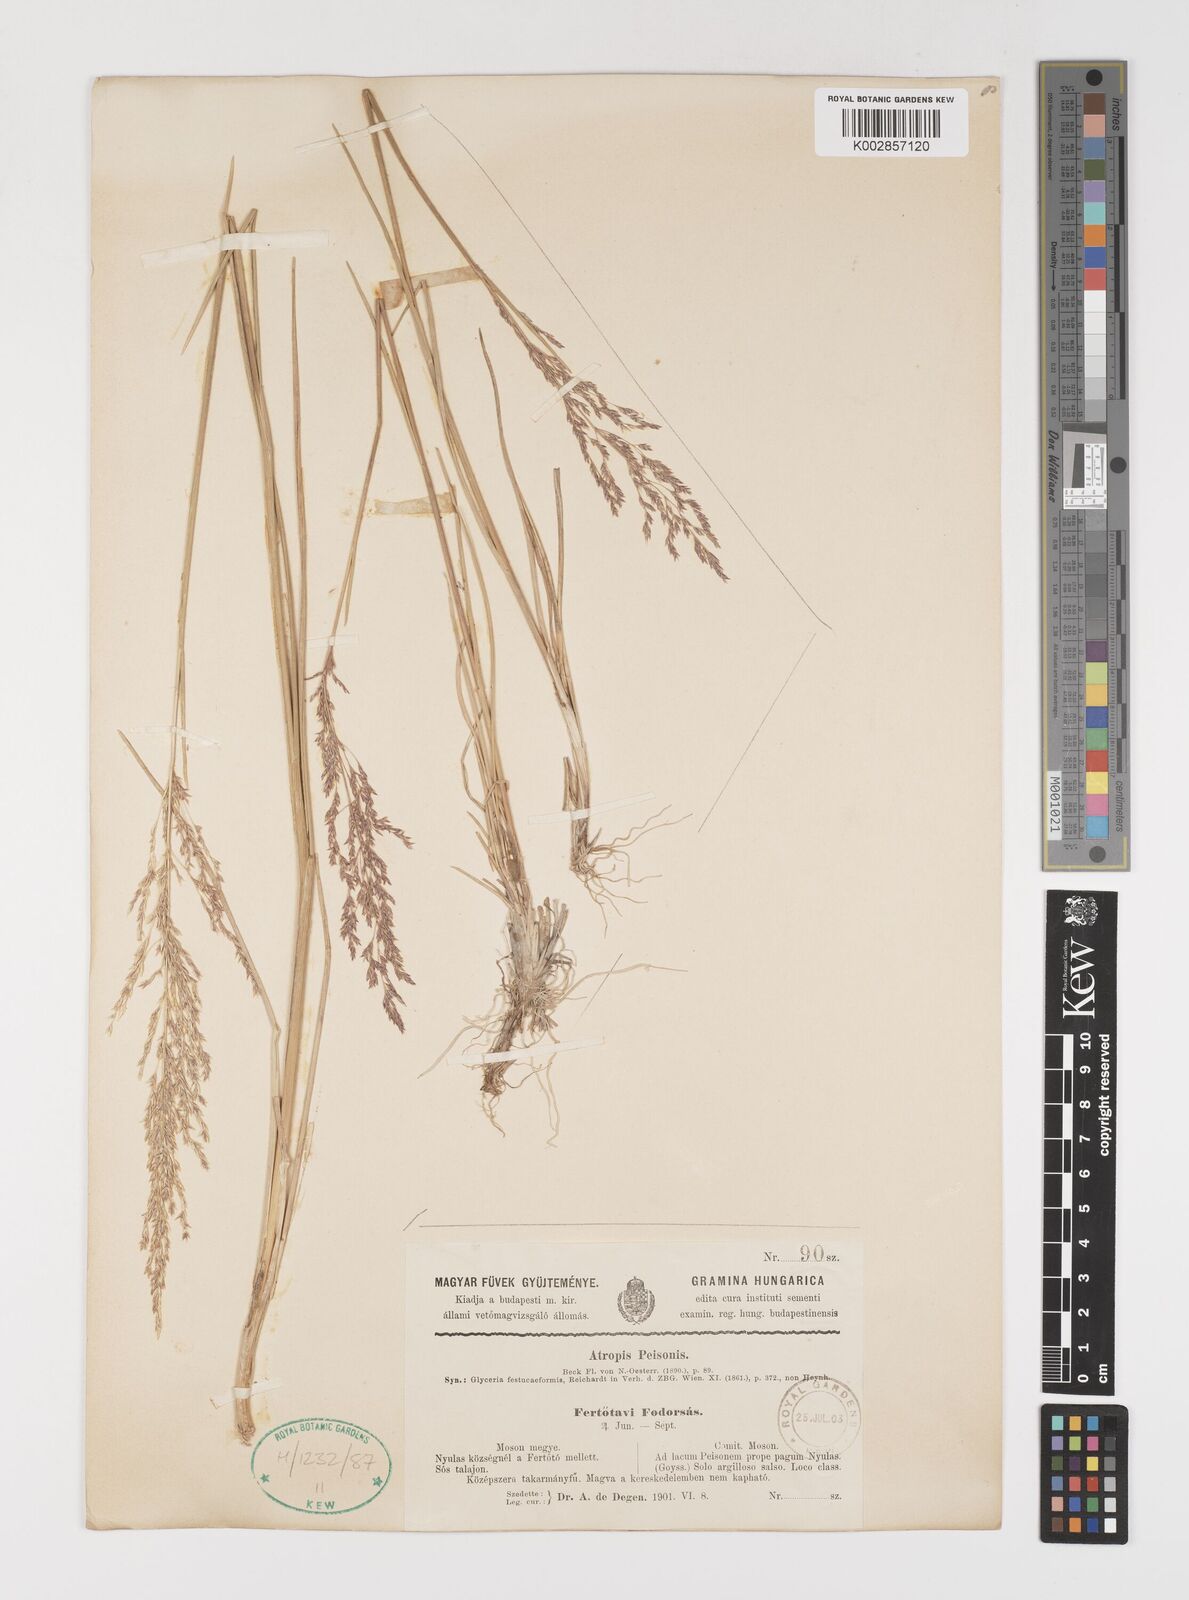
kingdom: Plantae
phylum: Tracheophyta
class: Liliopsida
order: Poales
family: Poaceae
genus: Puccinellia
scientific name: Puccinellia festuciformis
